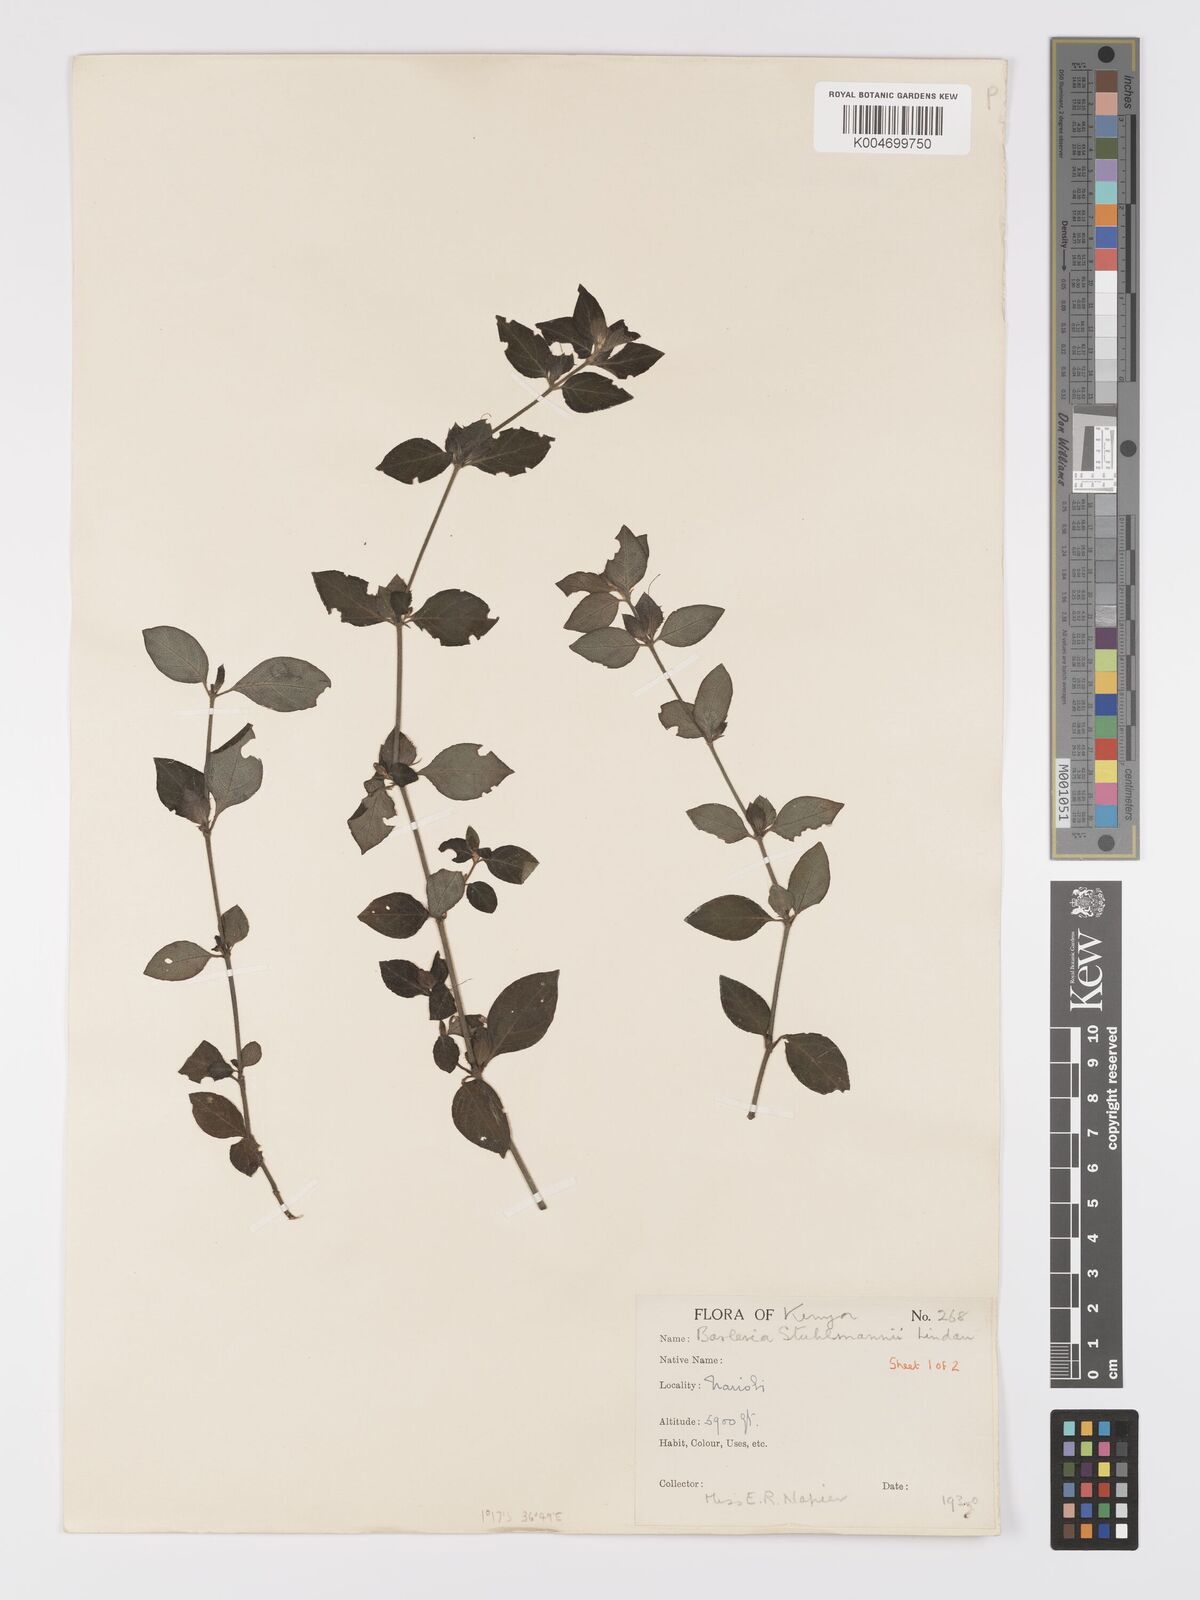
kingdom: Plantae
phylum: Tracheophyta
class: Magnoliopsida
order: Lamiales
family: Acanthaceae
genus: Barleria
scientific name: Barleria ventricosa
